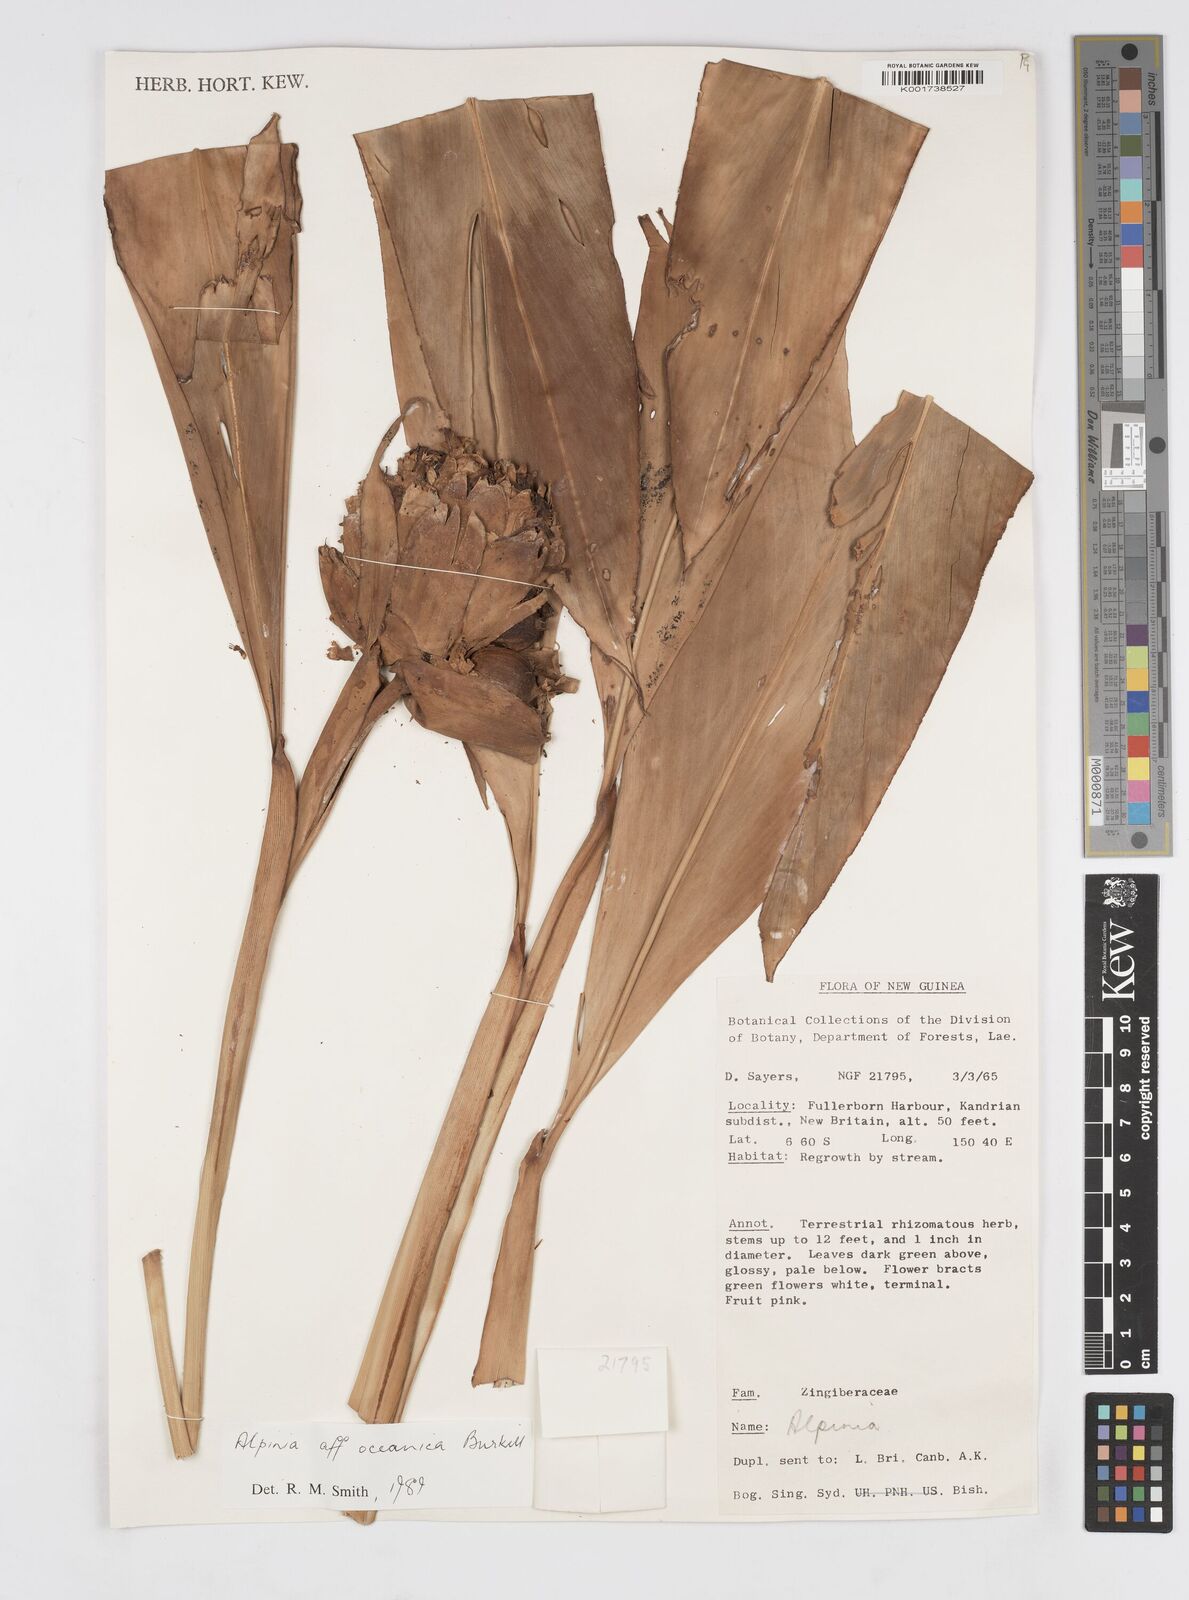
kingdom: Plantae
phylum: Tracheophyta
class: Liliopsida
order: Zingiberales
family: Zingiberaceae
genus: Alpinia
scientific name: Alpinia oceanica
